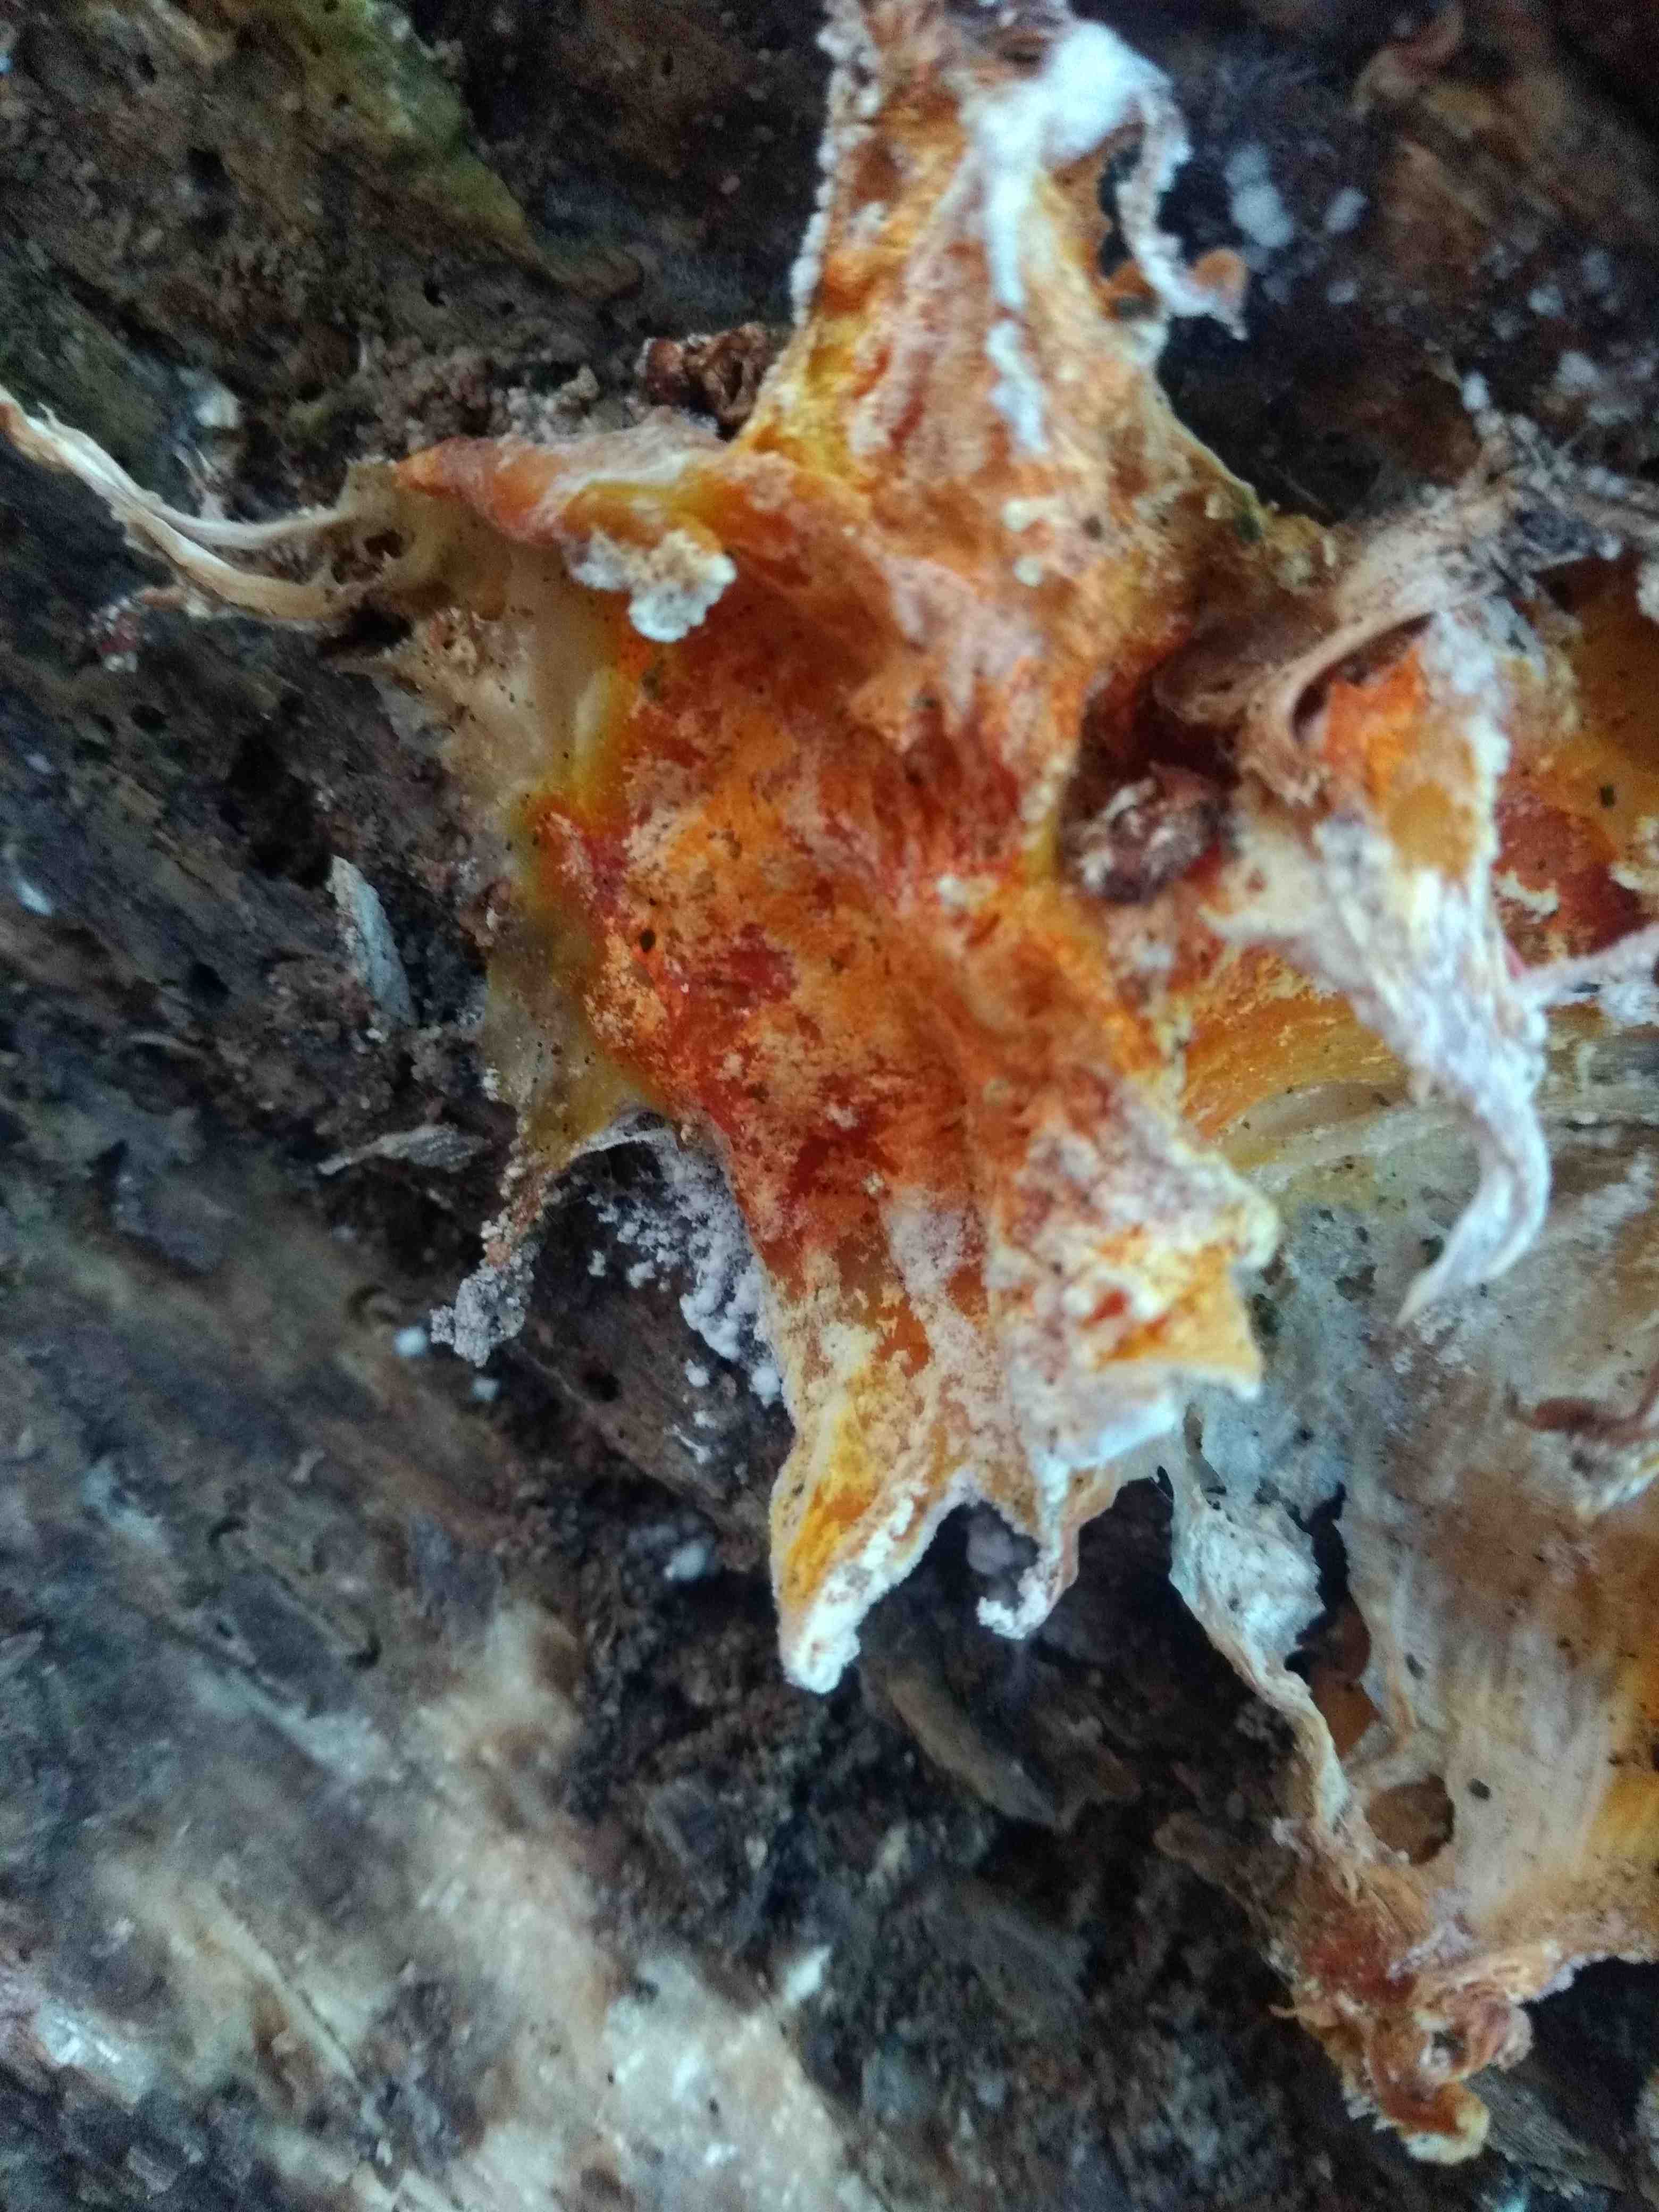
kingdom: Fungi
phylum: Ascomycota
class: Sordariomycetes
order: Hypocreales
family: Hypocreaceae
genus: Hypomyces
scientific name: Hypomyces aurantius
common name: almindelig snylteskorpe
